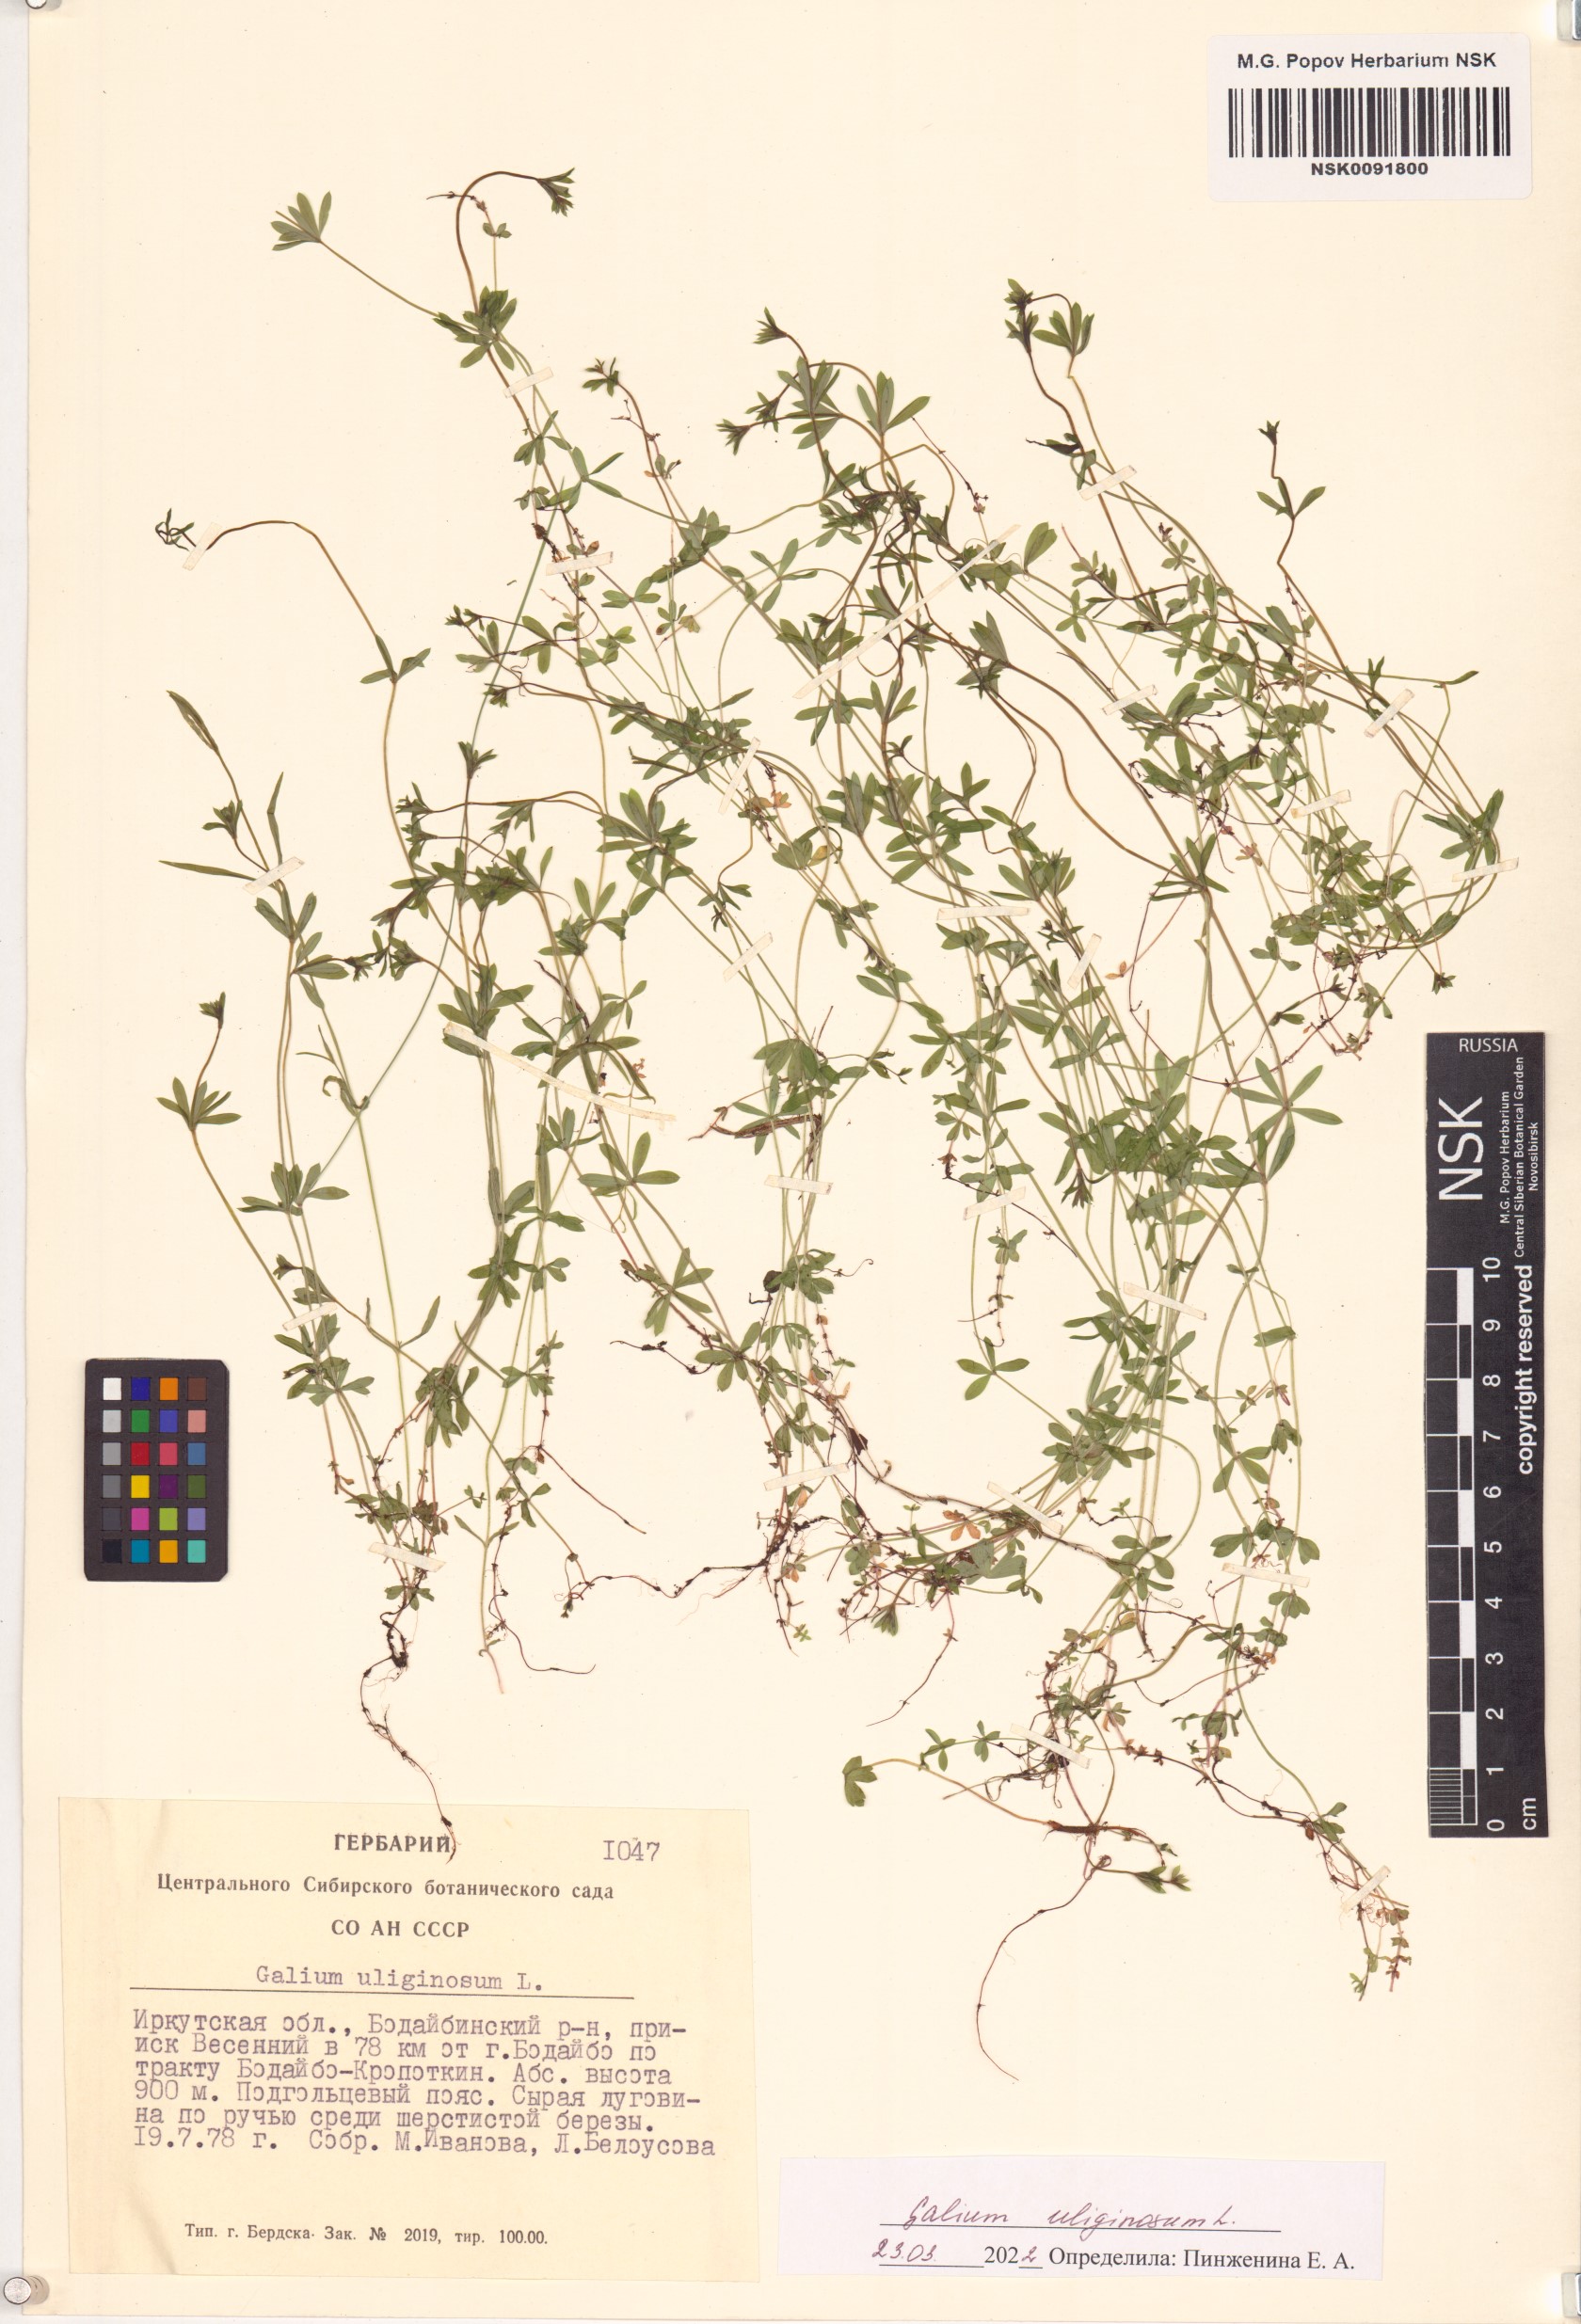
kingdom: Plantae
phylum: Tracheophyta
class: Magnoliopsida
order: Gentianales
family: Rubiaceae
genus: Galium
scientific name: Galium uliginosum
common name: Fen bedstraw
